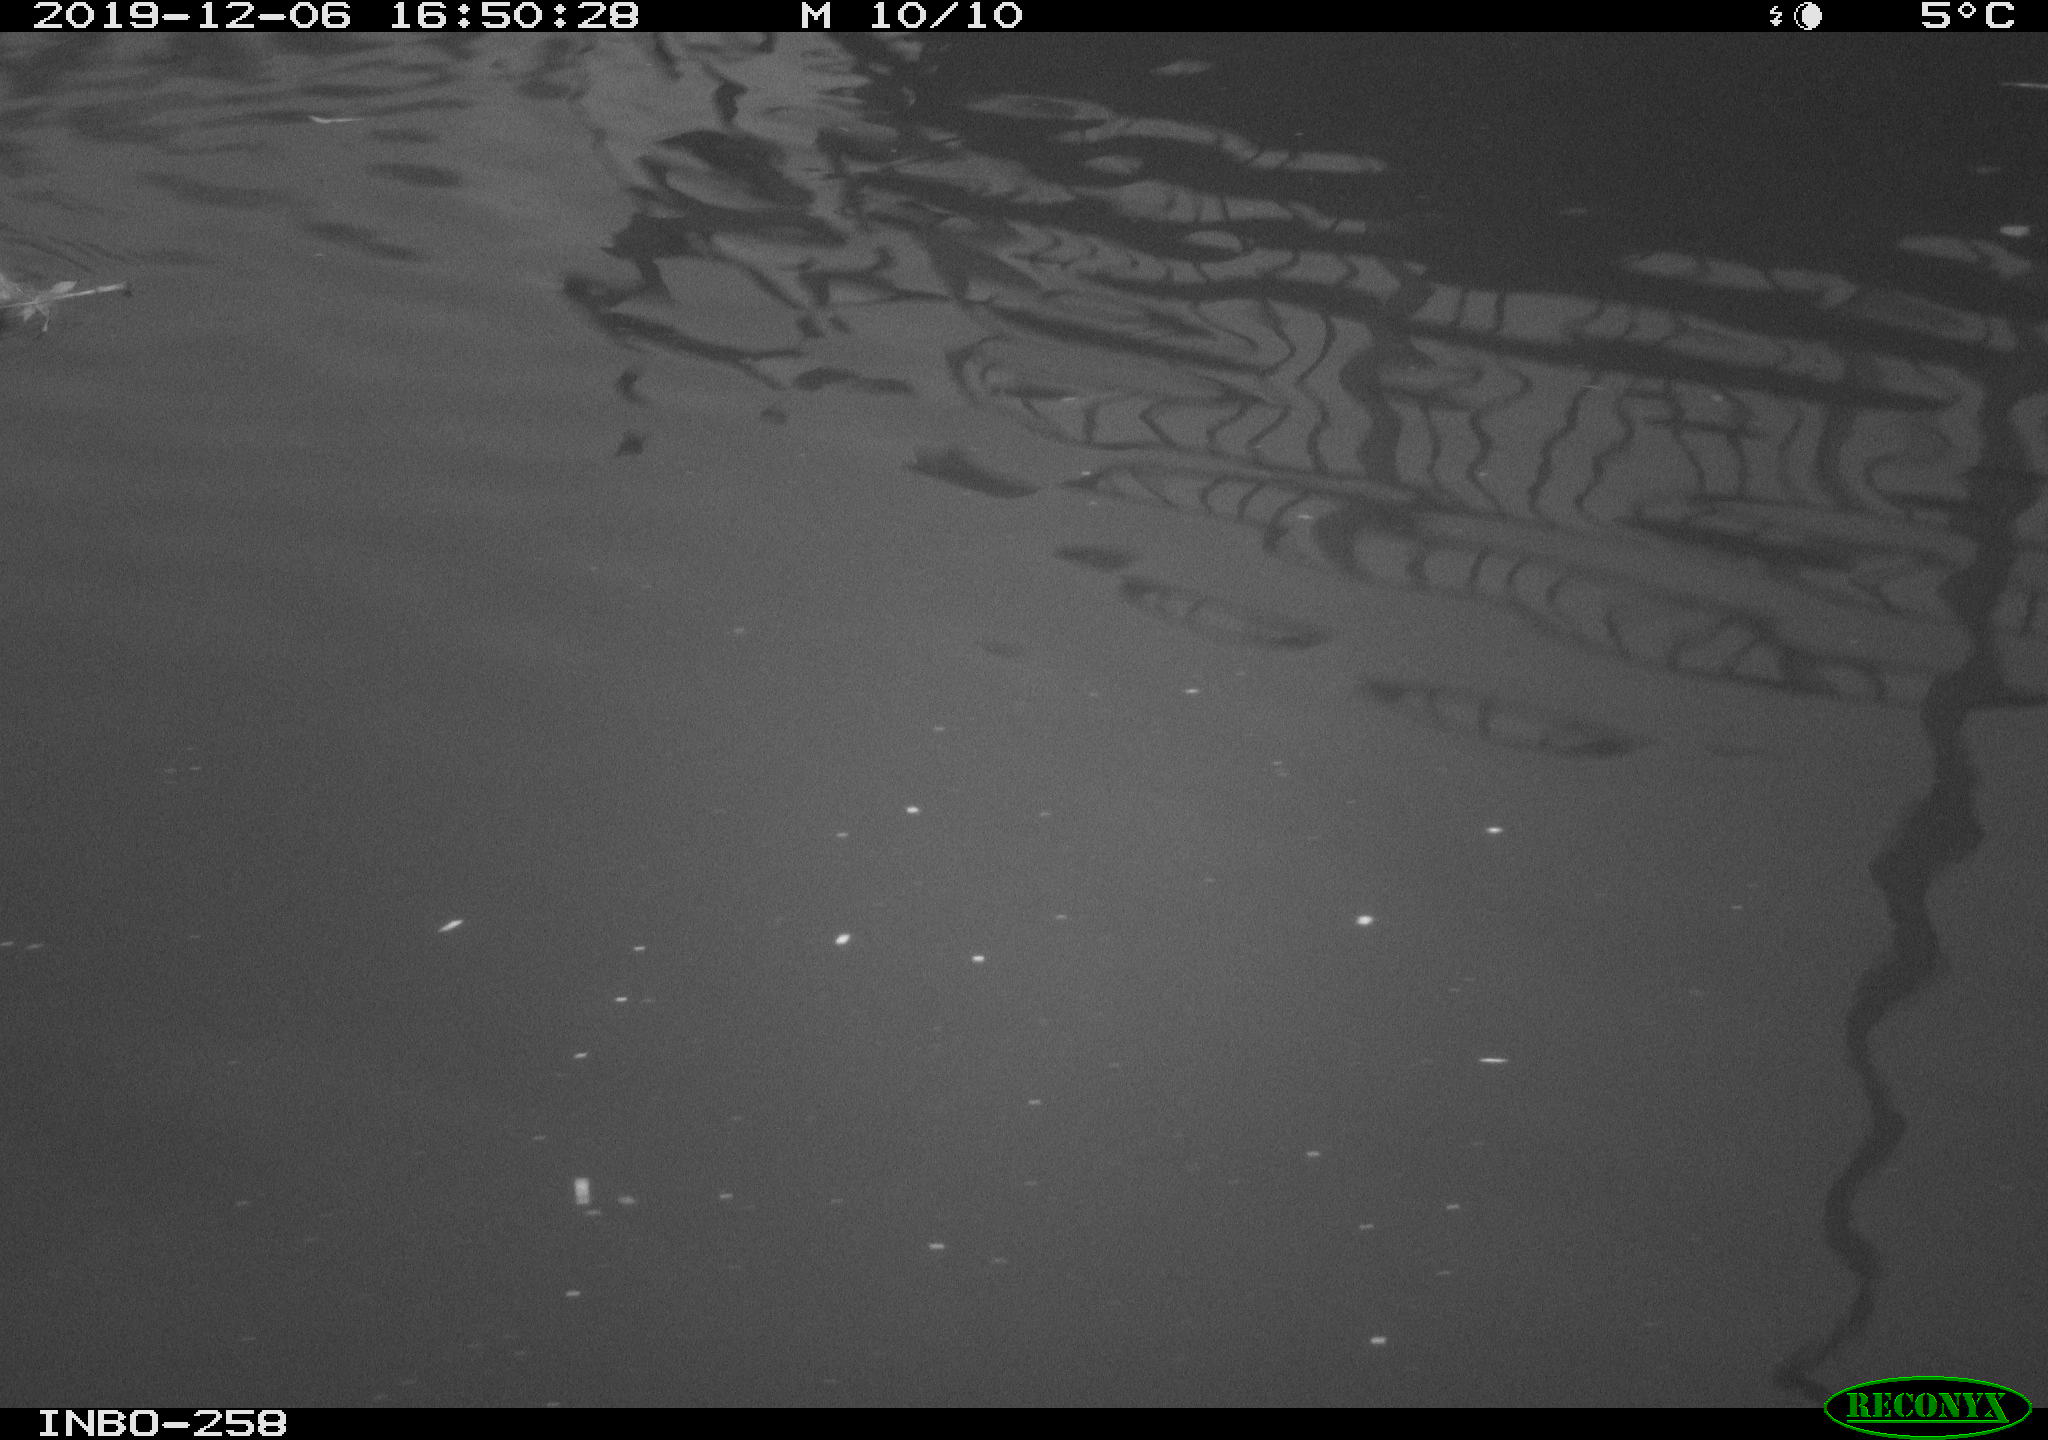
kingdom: Animalia
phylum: Chordata
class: Aves
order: Gruiformes
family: Rallidae
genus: Gallinula
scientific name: Gallinula chloropus
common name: Common moorhen
